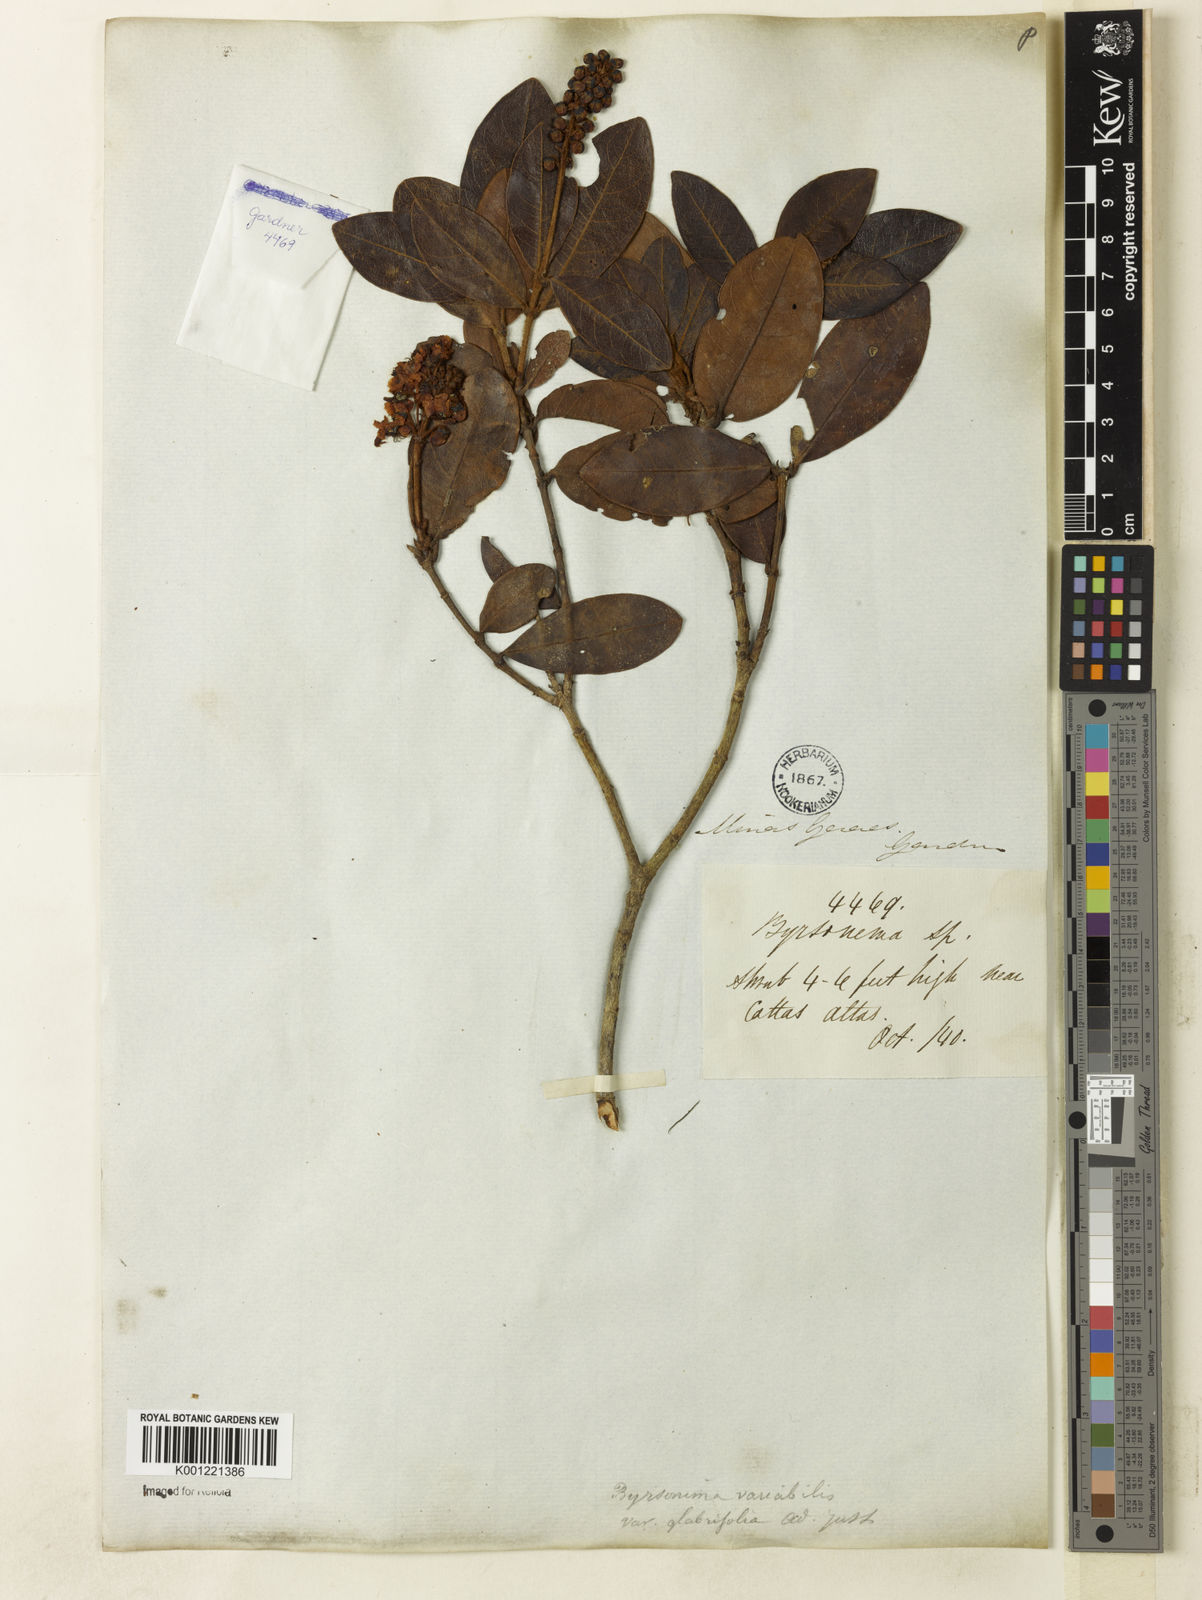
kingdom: Plantae
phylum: Tracheophyta
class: Magnoliopsida
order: Malpighiales
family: Malpighiaceae
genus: Byrsonima
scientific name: Byrsonima variabilis
